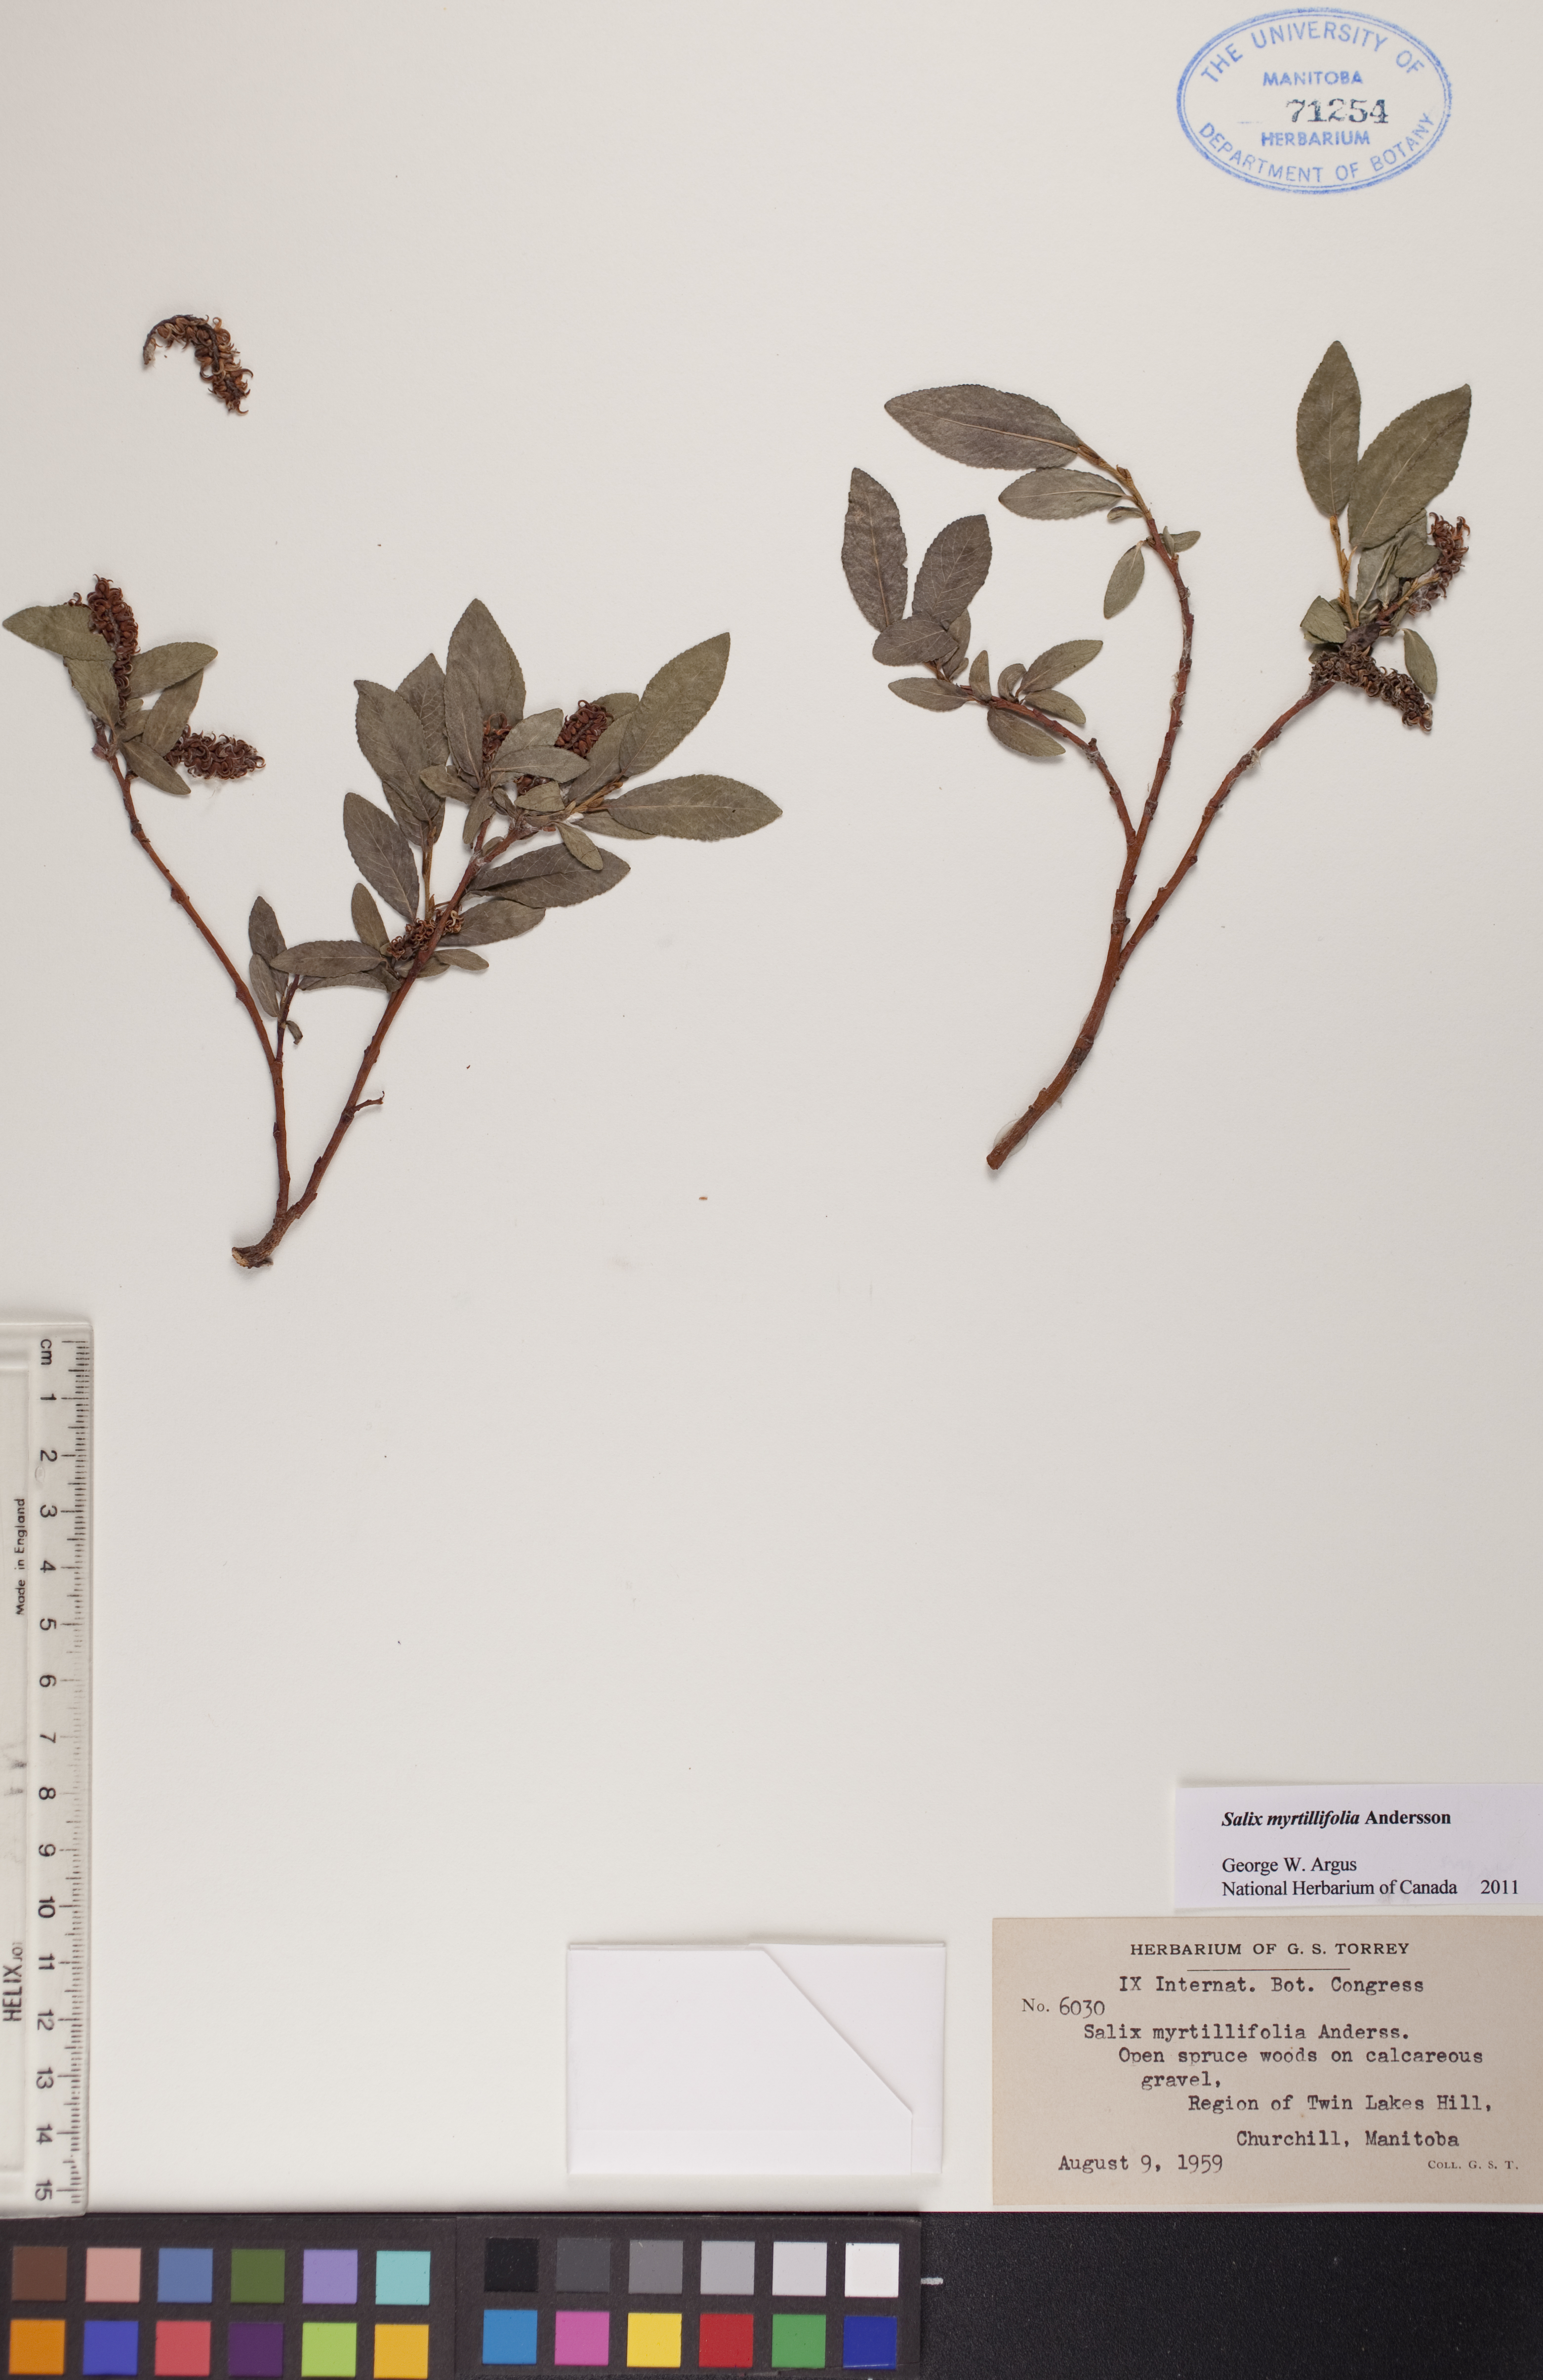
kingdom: Plantae
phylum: Tracheophyta
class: Magnoliopsida
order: Malpighiales
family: Salicaceae
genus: Salix
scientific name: Salix myrtillifolia
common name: Bilberry willow
